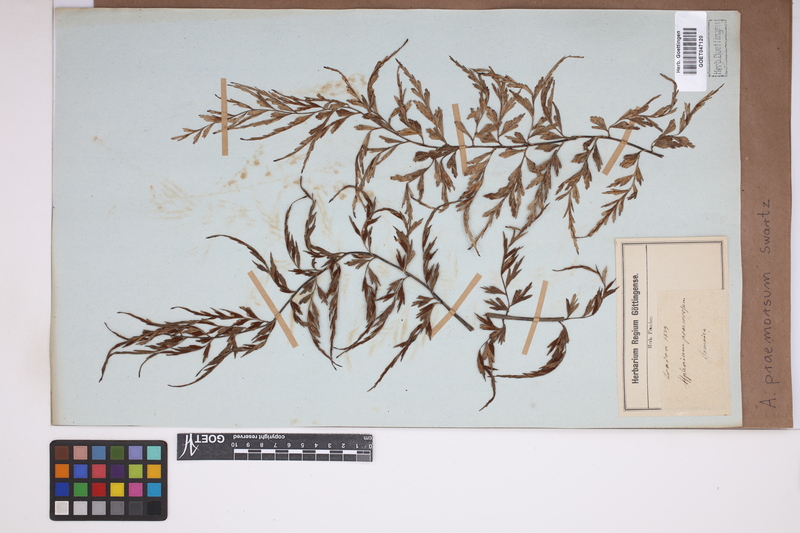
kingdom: Plantae
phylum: Tracheophyta
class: Polypodiopsida
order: Polypodiales
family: Aspleniaceae
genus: Asplenium
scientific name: Asplenium praemorsum
